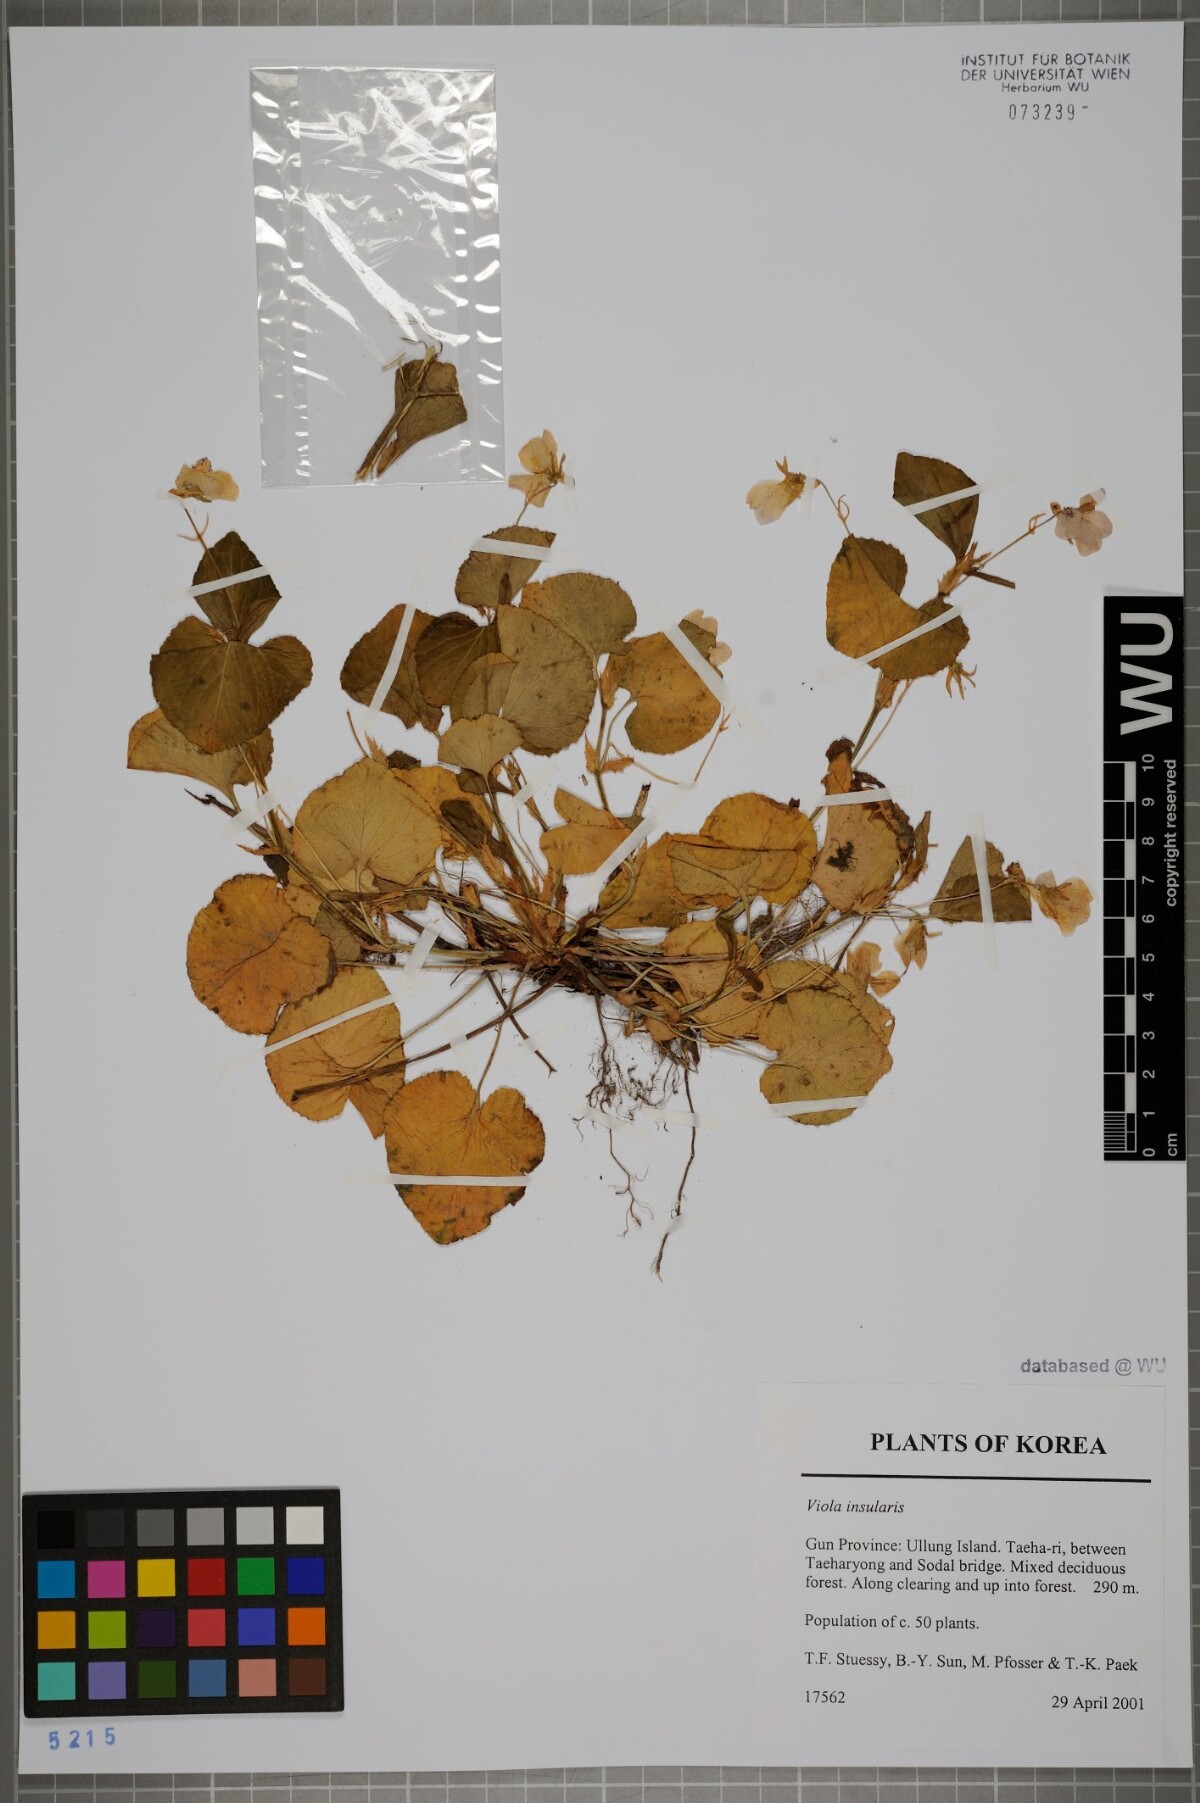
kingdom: Plantae
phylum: Tracheophyta
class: Magnoliopsida
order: Malpighiales
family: Violaceae
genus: Viola
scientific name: Viola kusanoana
